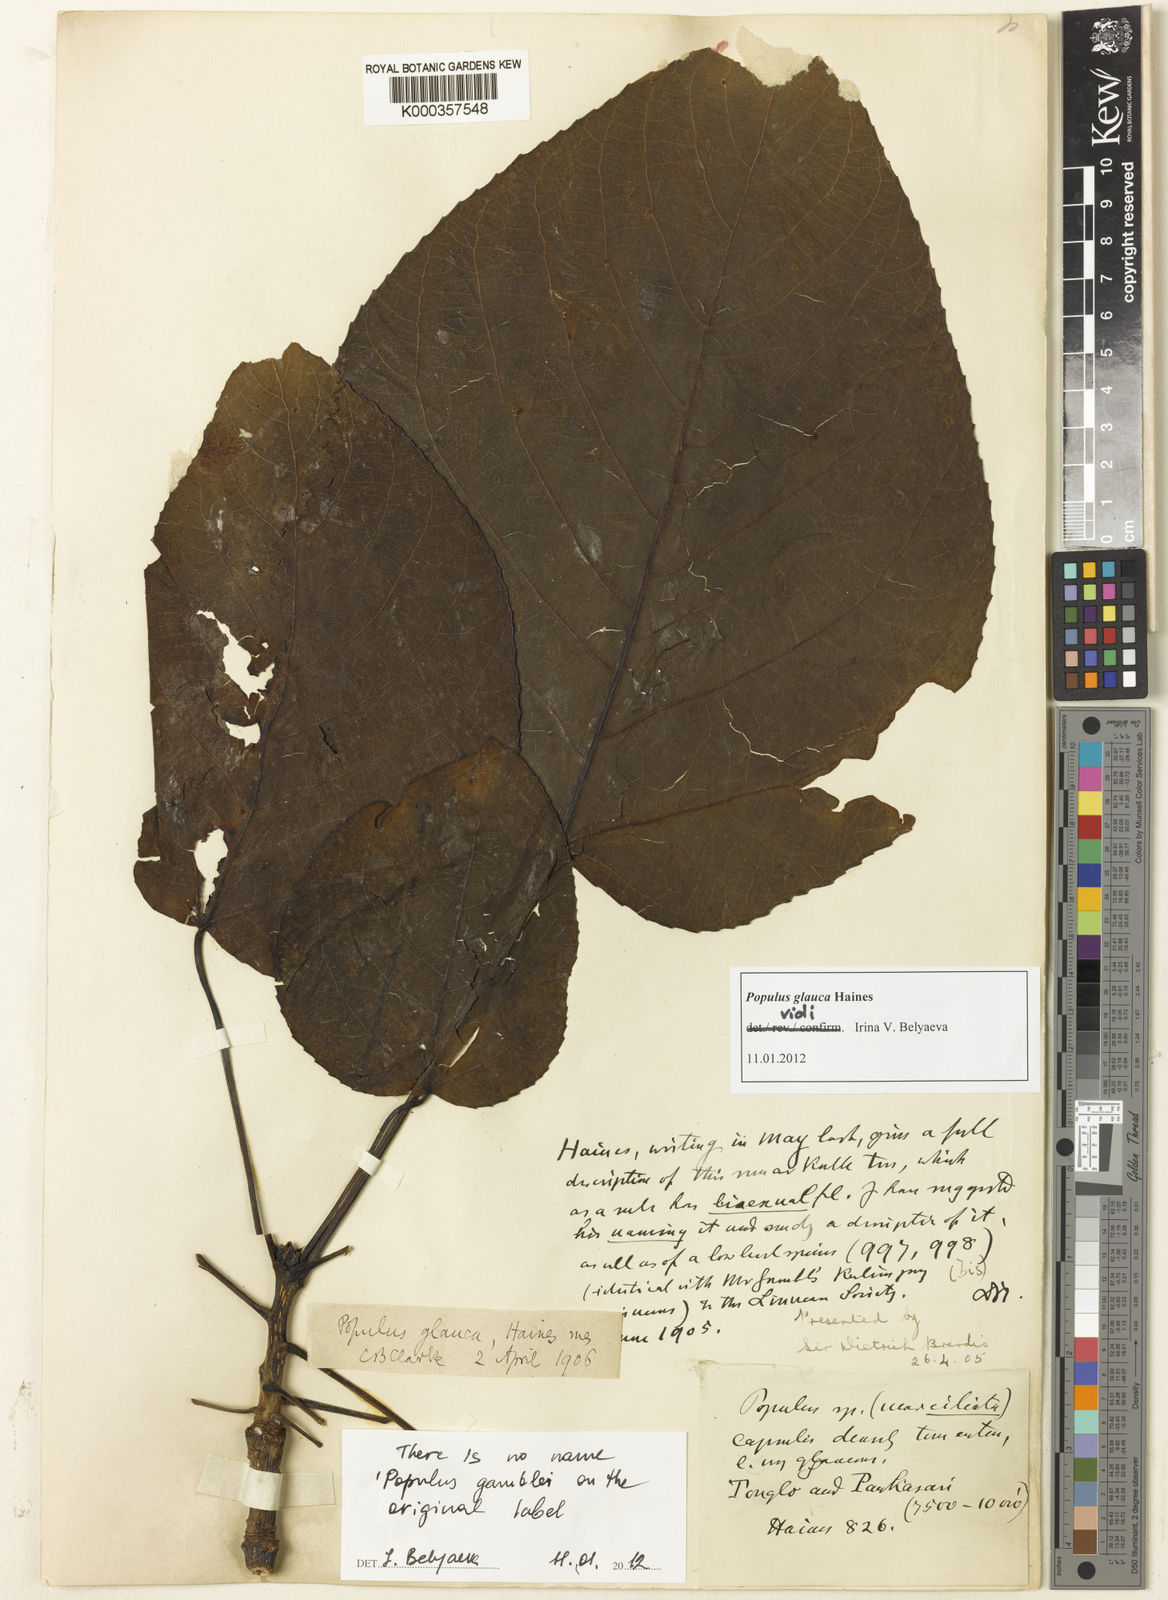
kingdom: Plantae
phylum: Tracheophyta
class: Magnoliopsida
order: Malpighiales
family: Salicaceae
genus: Populus
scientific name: Populus glauca
